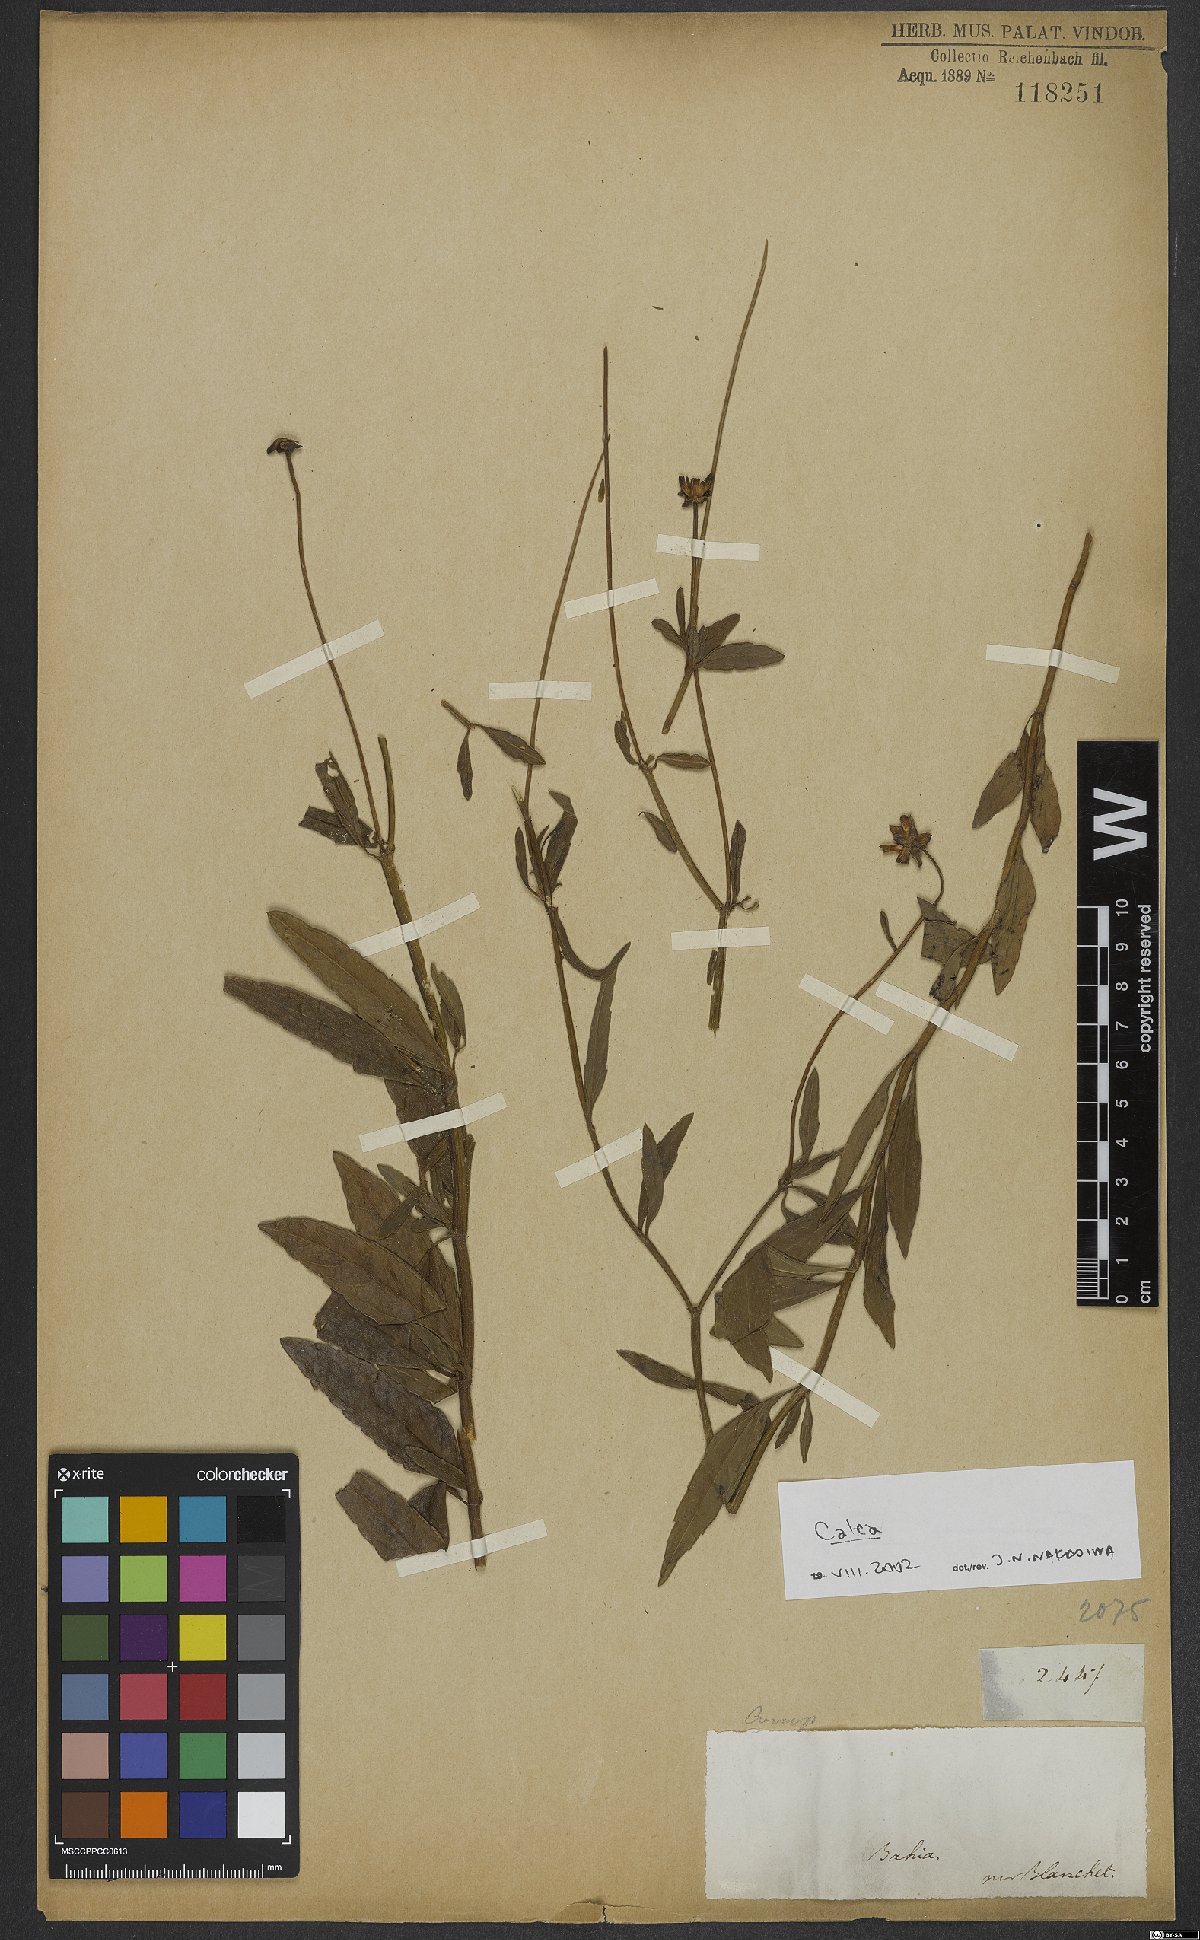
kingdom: Plantae
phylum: Tracheophyta
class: Magnoliopsida
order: Asterales
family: Asteraceae
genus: Calea
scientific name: Calea
